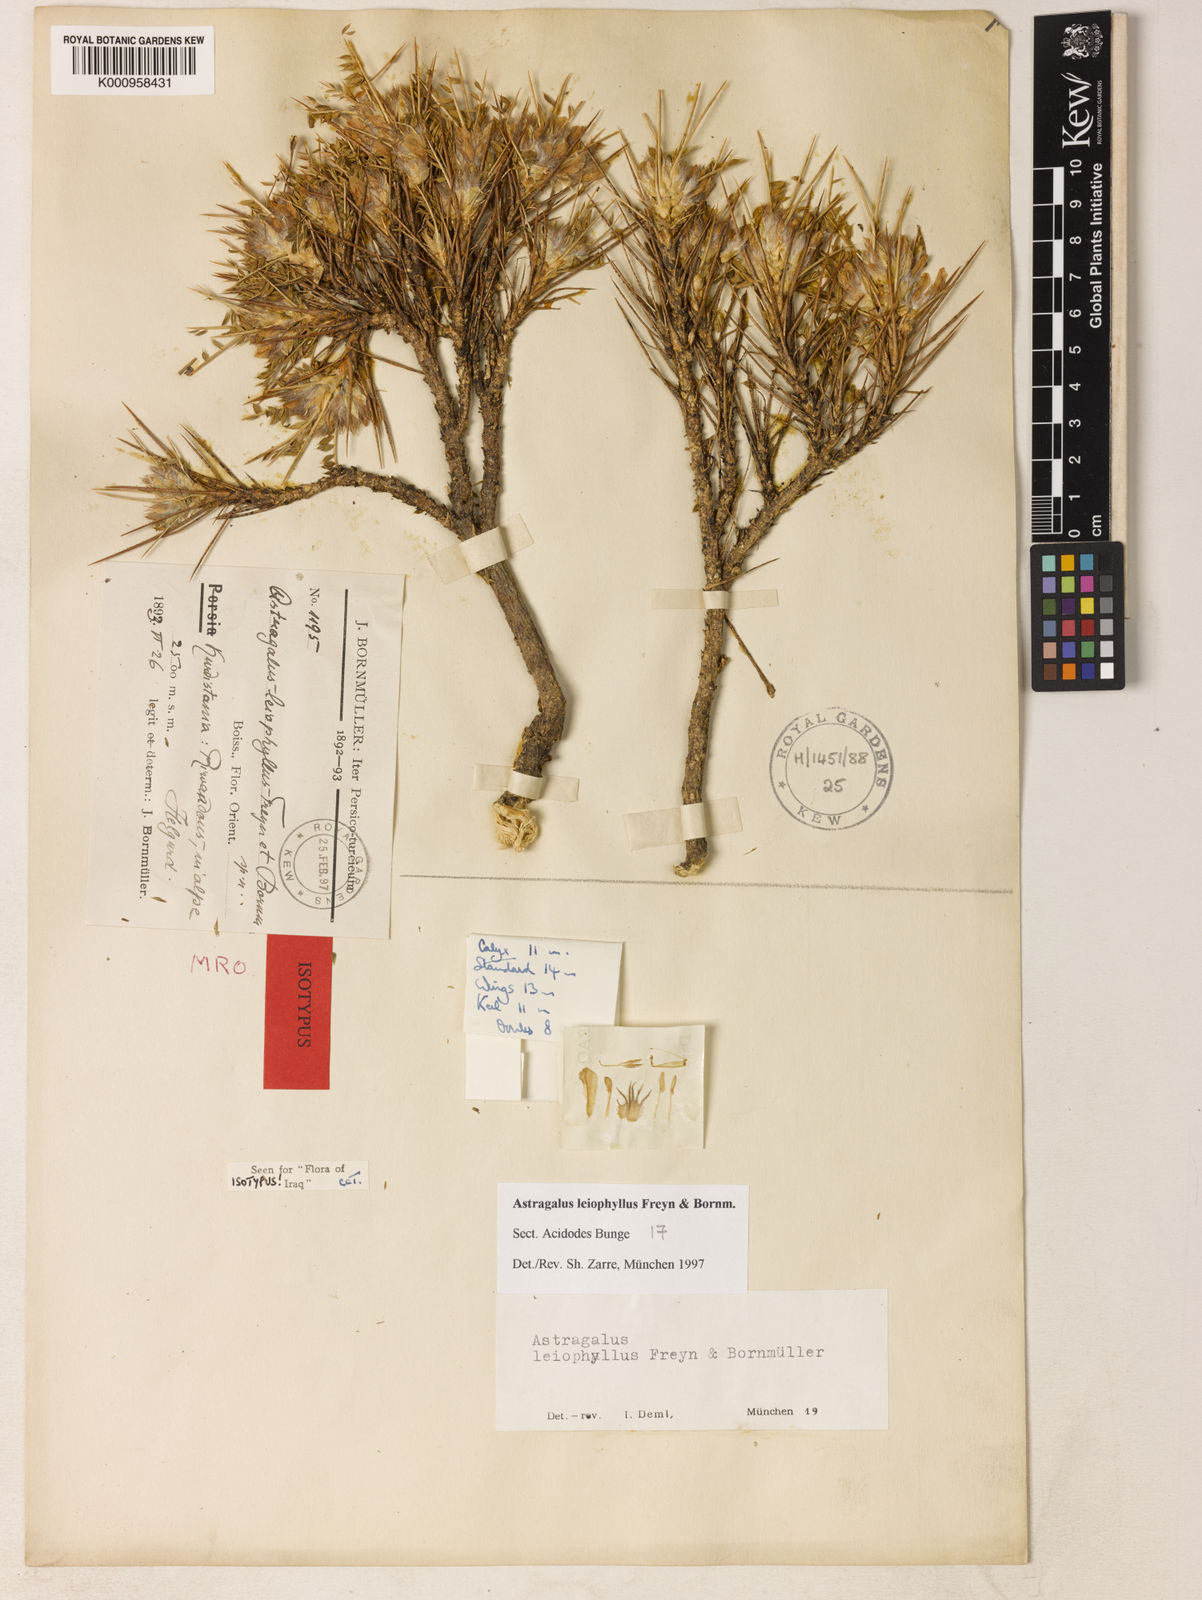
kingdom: Plantae
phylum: Tracheophyta
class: Magnoliopsida
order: Fabales
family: Fabaceae
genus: Astragalus
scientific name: Astragalus leiophyllus
